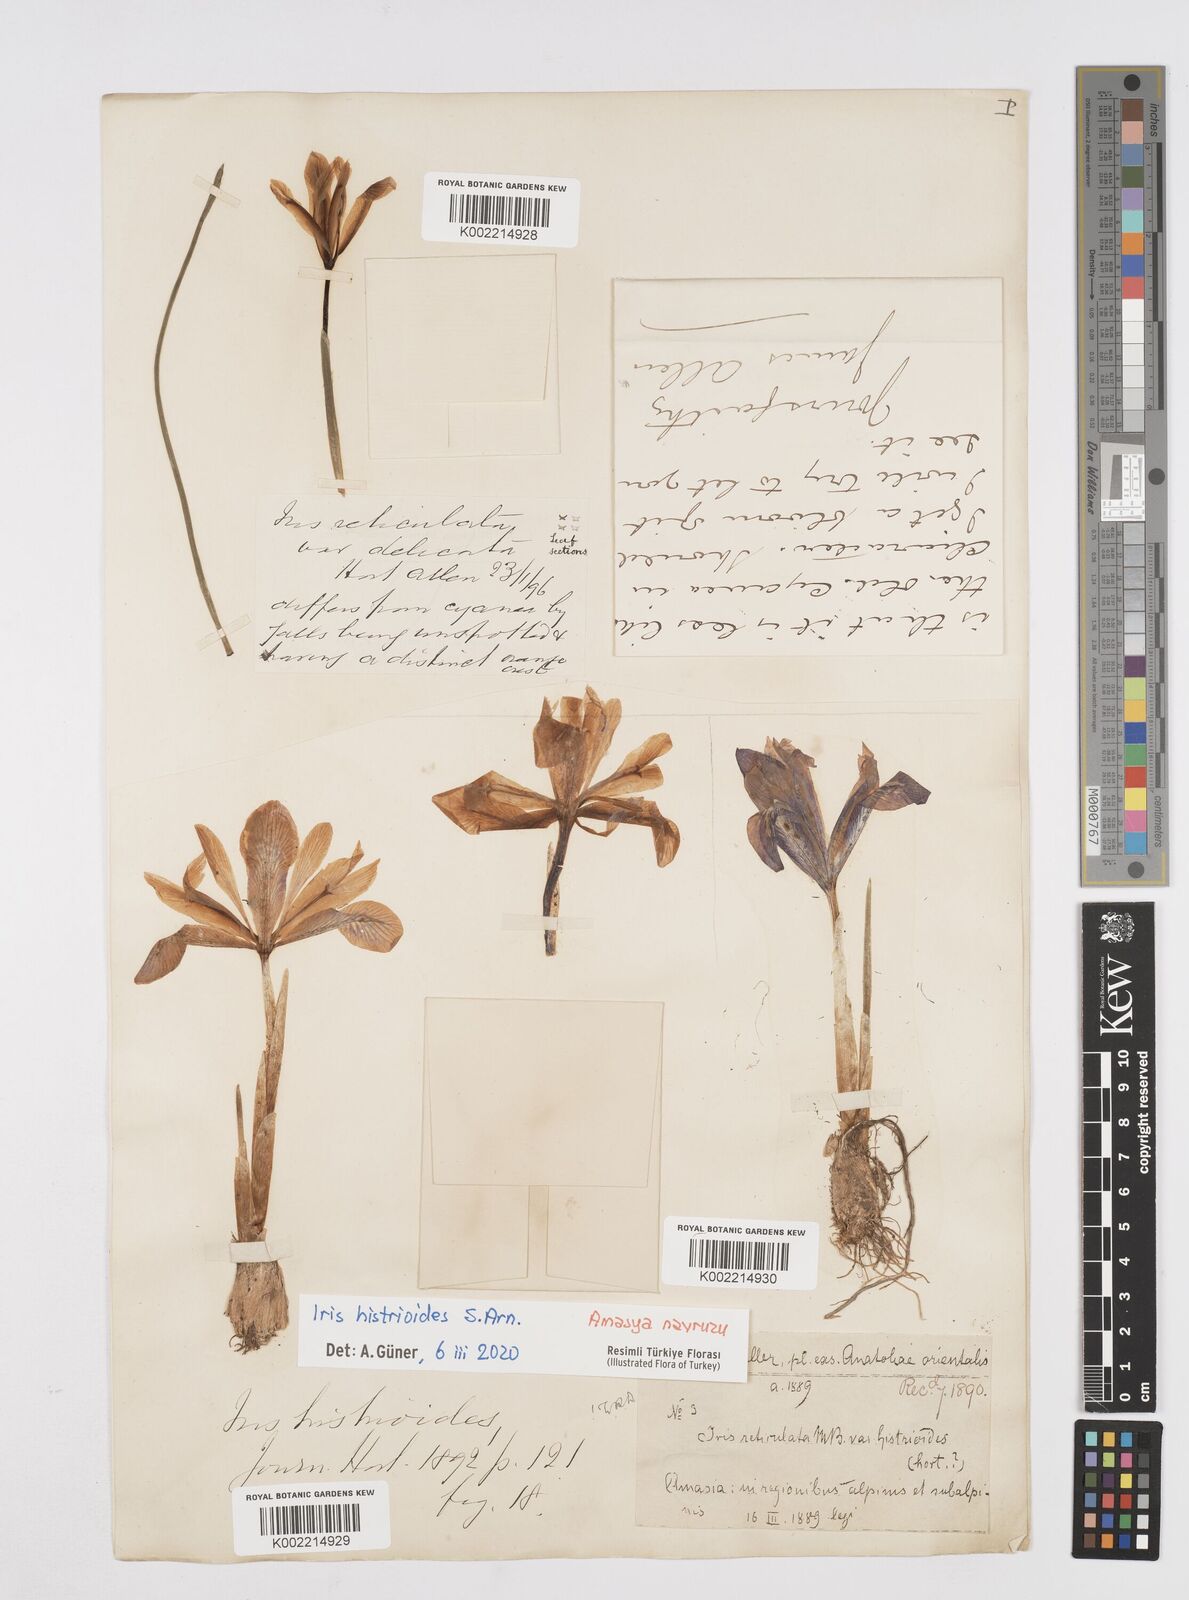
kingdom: Plantae
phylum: Tracheophyta
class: Liliopsida
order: Asparagales
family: Iridaceae
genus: Iris
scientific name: Iris histrioides
